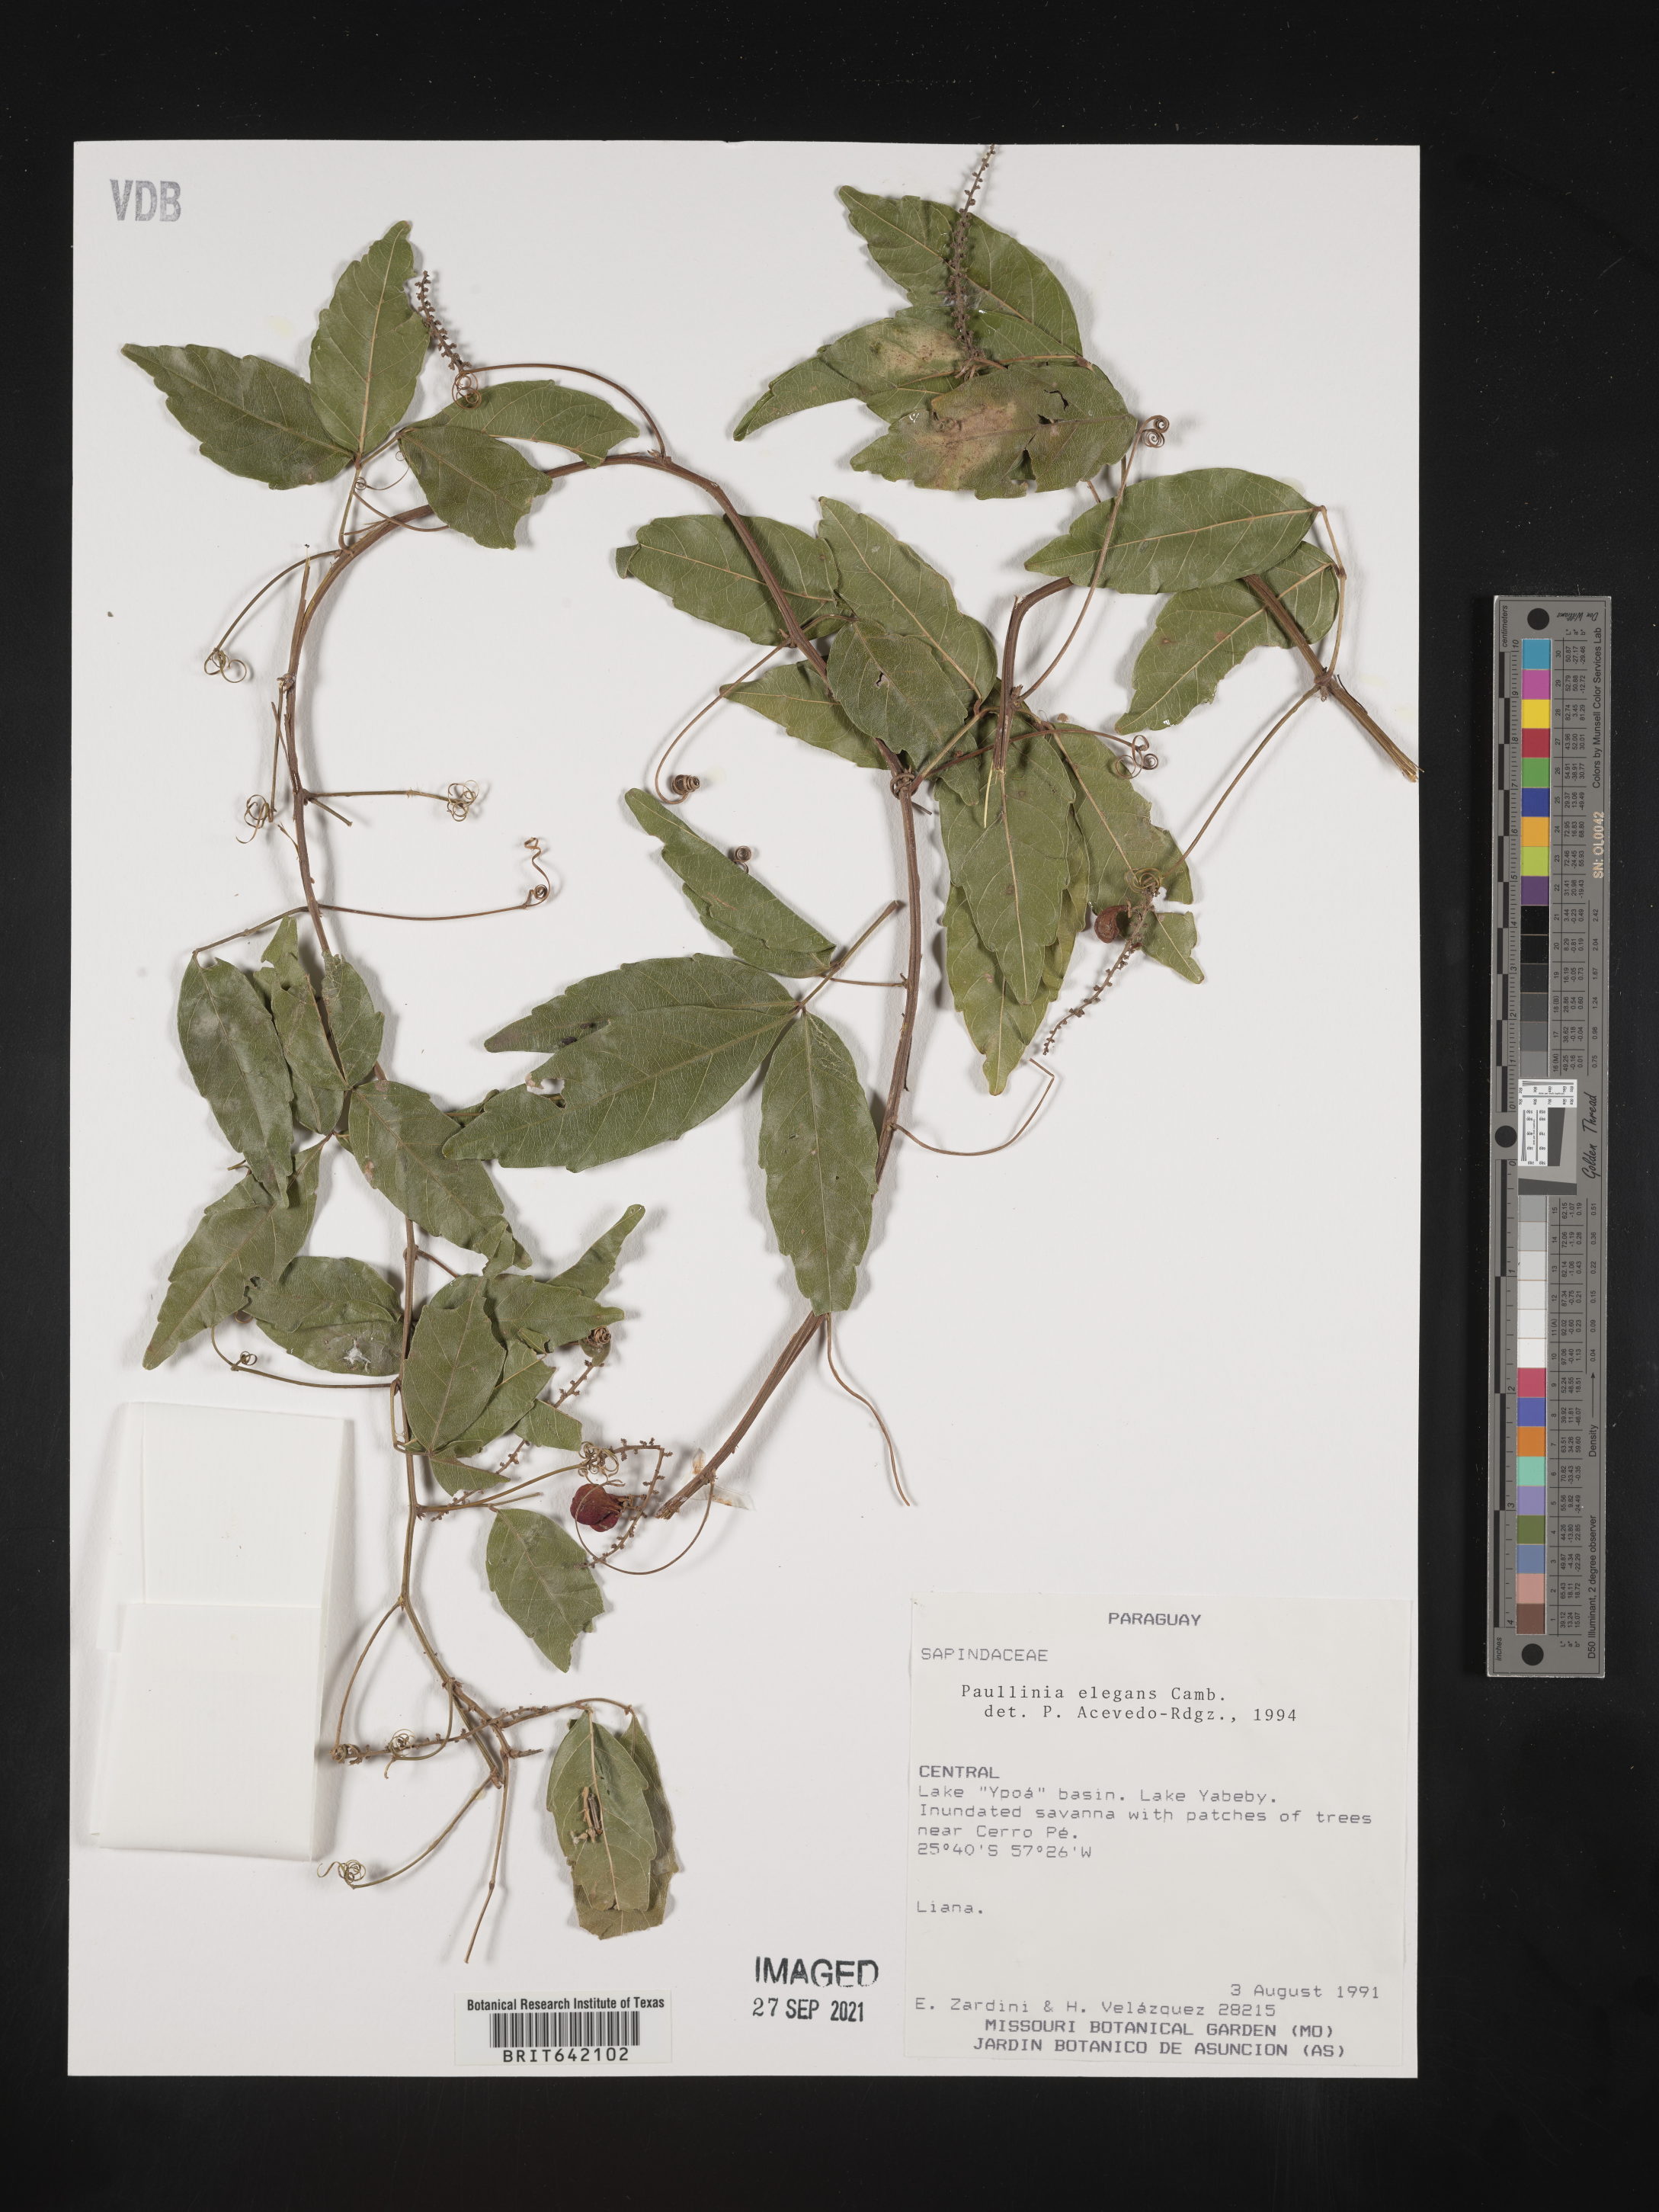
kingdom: Plantae
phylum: Tracheophyta
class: Magnoliopsida
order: Sapindales
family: Sapindaceae
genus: Paullinia
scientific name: Paullinia
